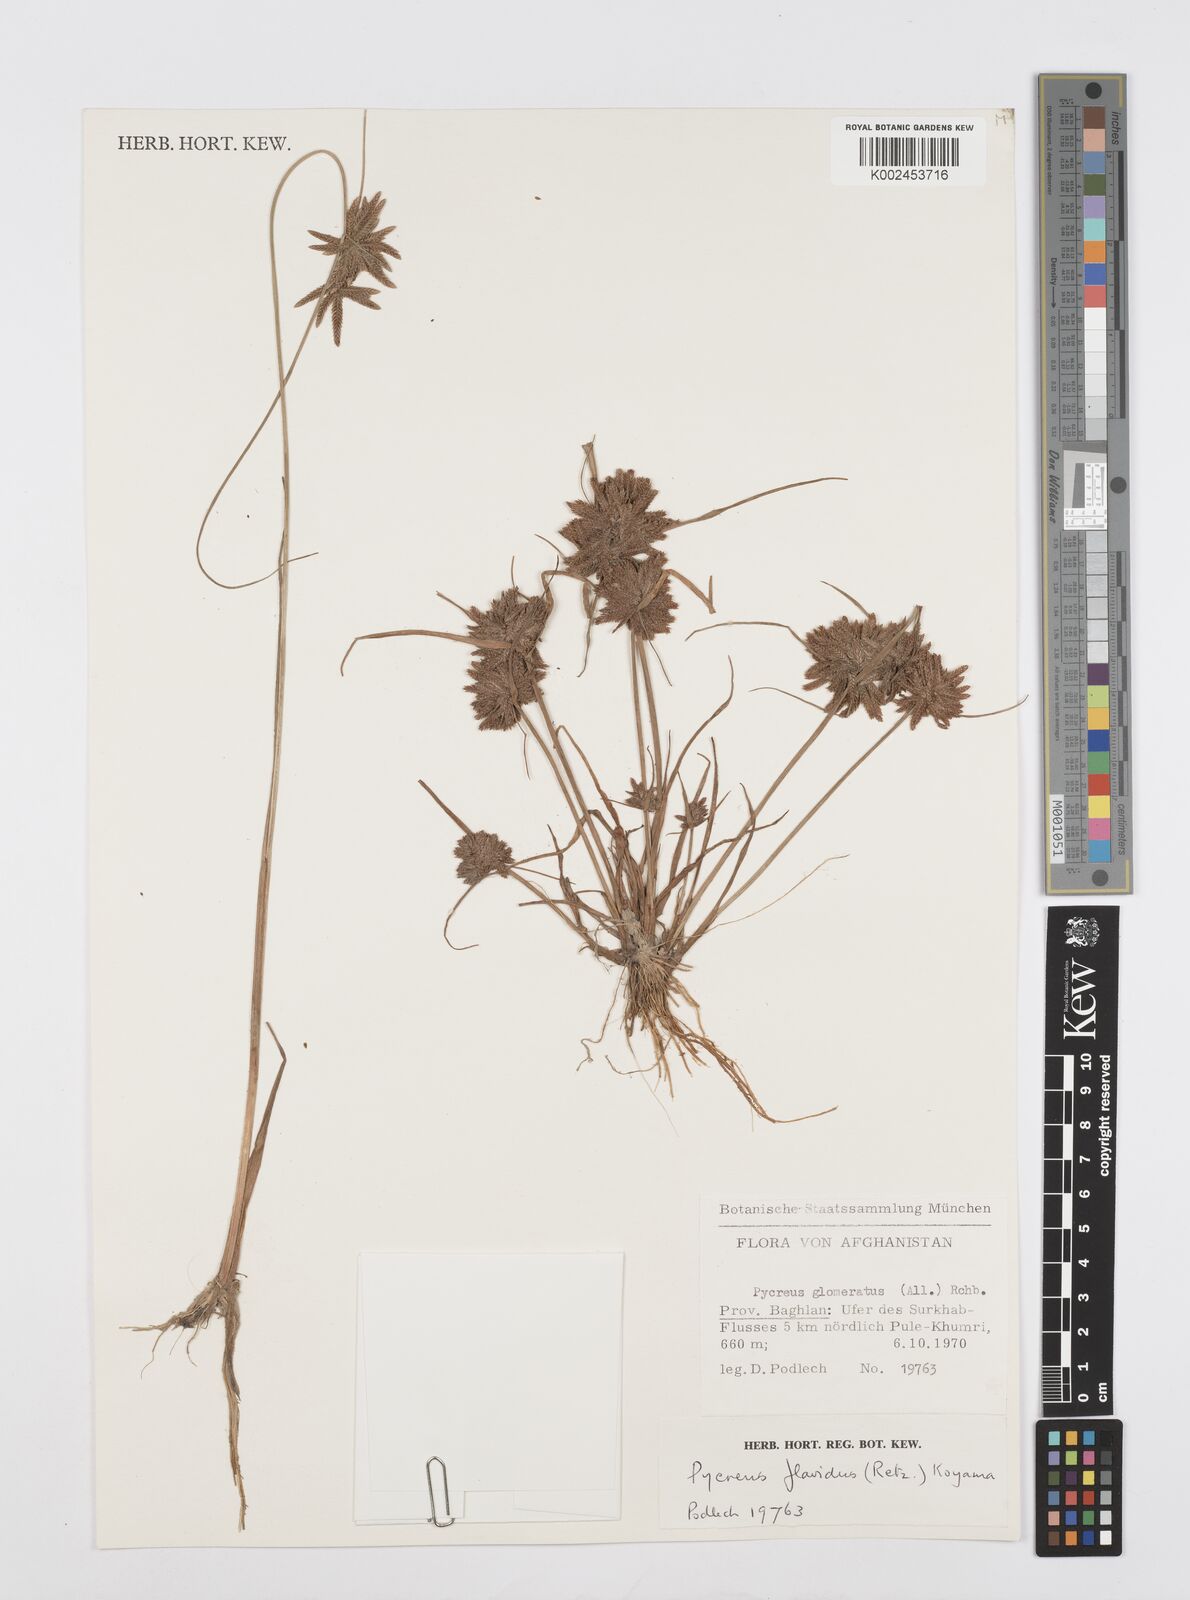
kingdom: Plantae
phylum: Tracheophyta
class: Liliopsida
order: Poales
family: Cyperaceae
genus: Cyperus
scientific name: Cyperus flavidus
